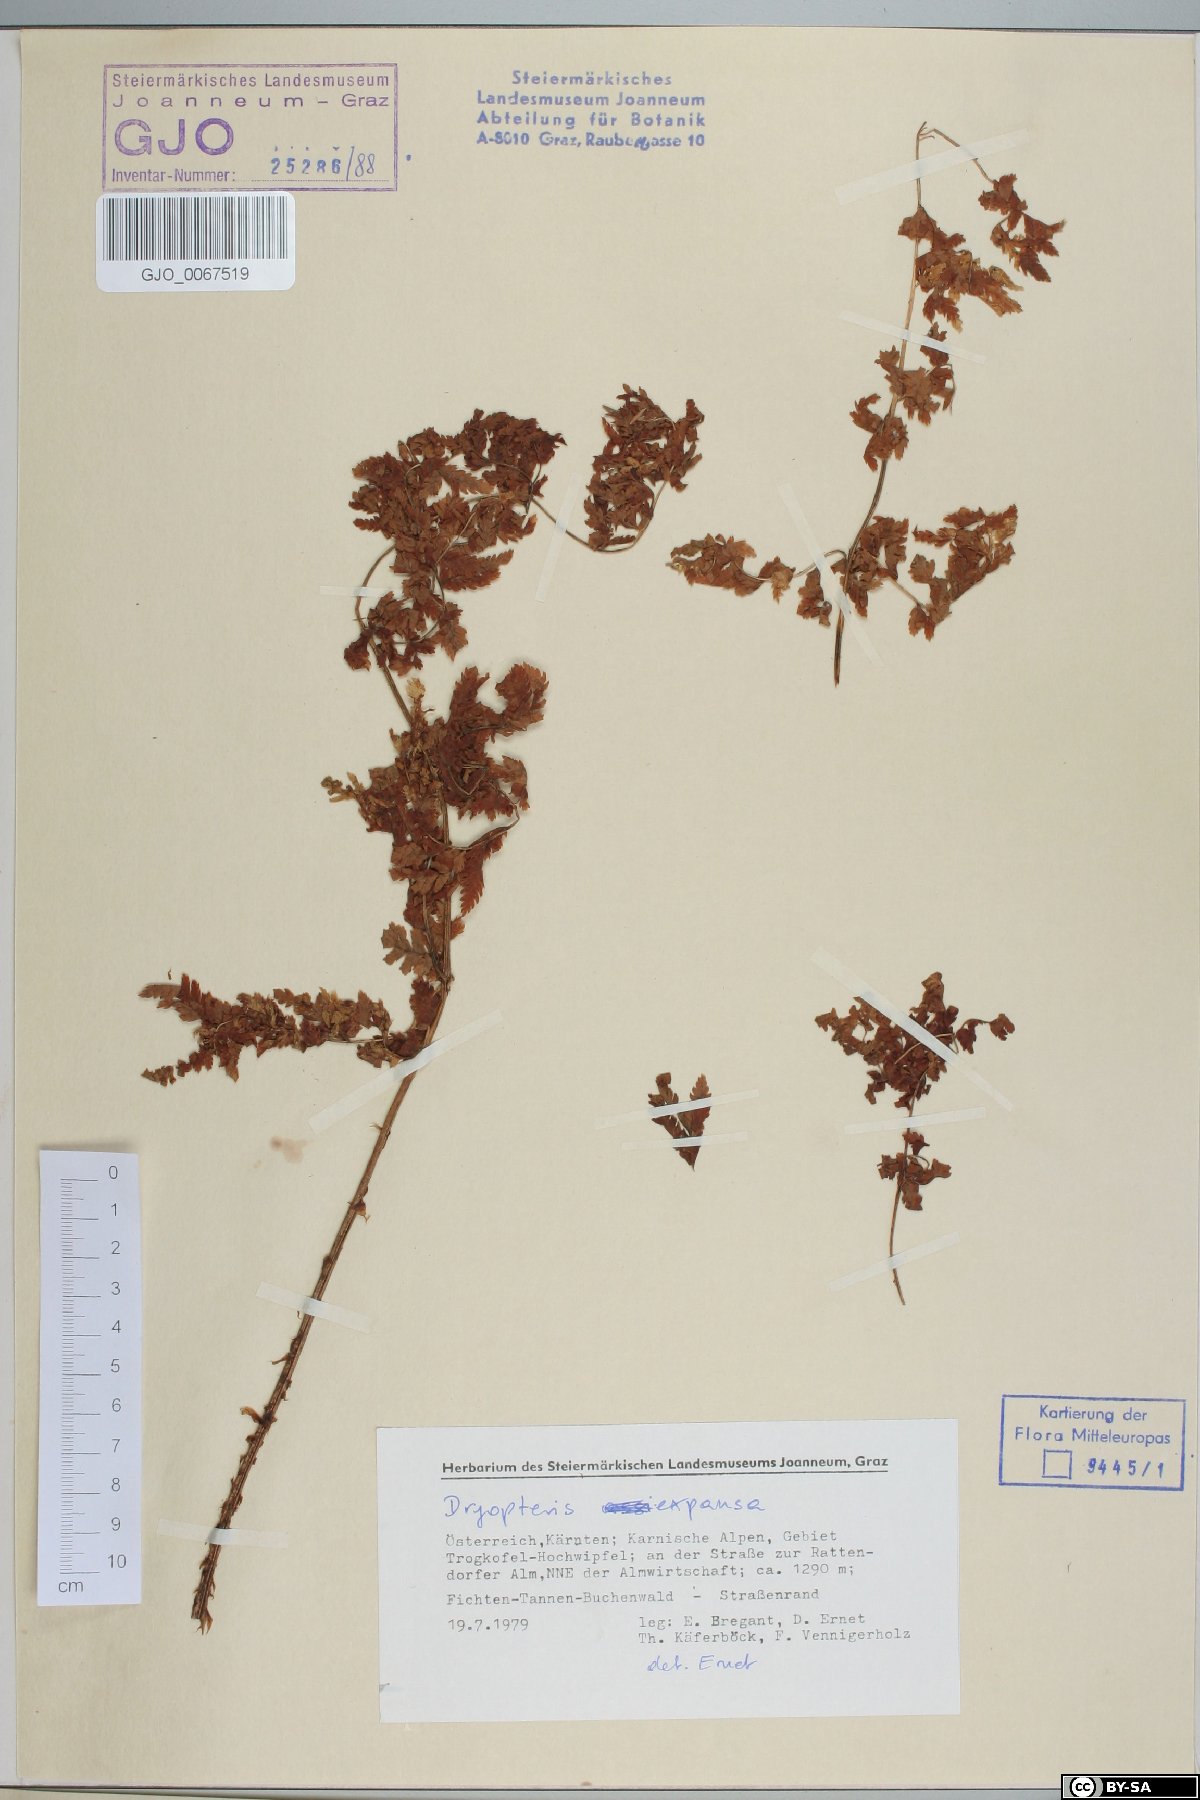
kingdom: Plantae
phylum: Tracheophyta
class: Polypodiopsida
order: Polypodiales
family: Dryopteridaceae
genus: Dryopteris
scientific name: Dryopteris expansa
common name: Northern buckler fern
